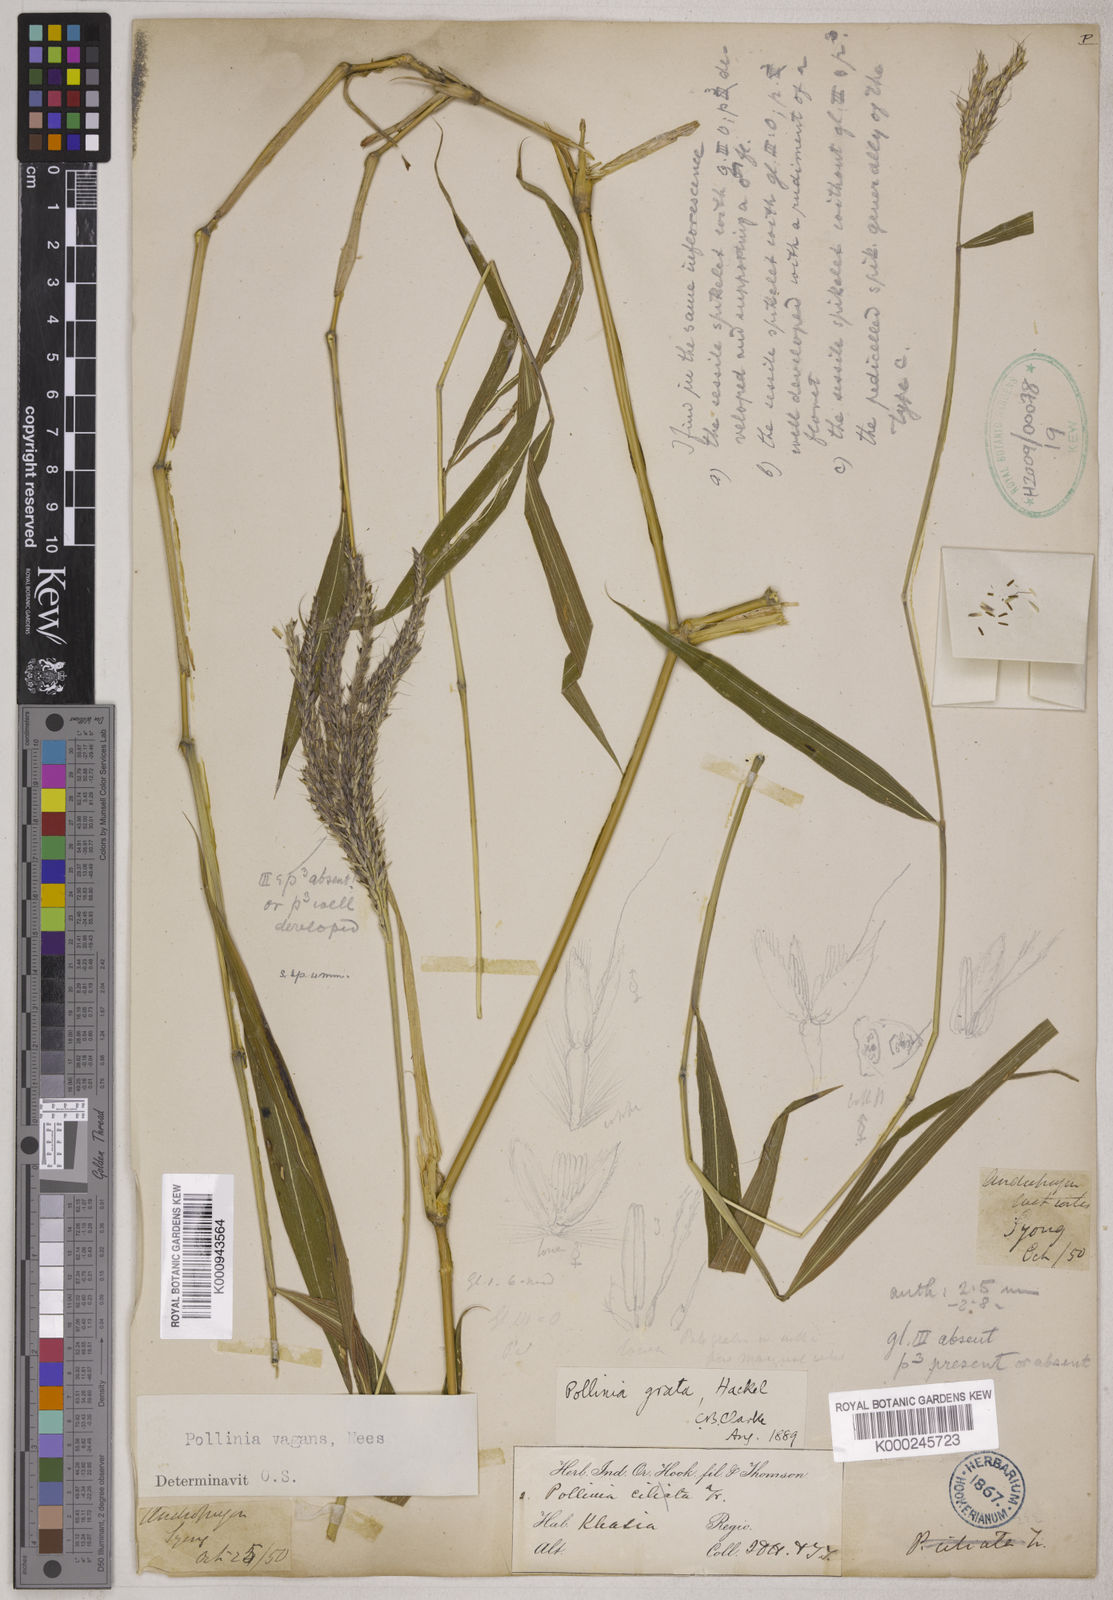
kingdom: Plantae
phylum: Tracheophyta
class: Liliopsida
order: Poales
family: Poaceae
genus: Microstegium
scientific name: Microstegium fasciculatum
